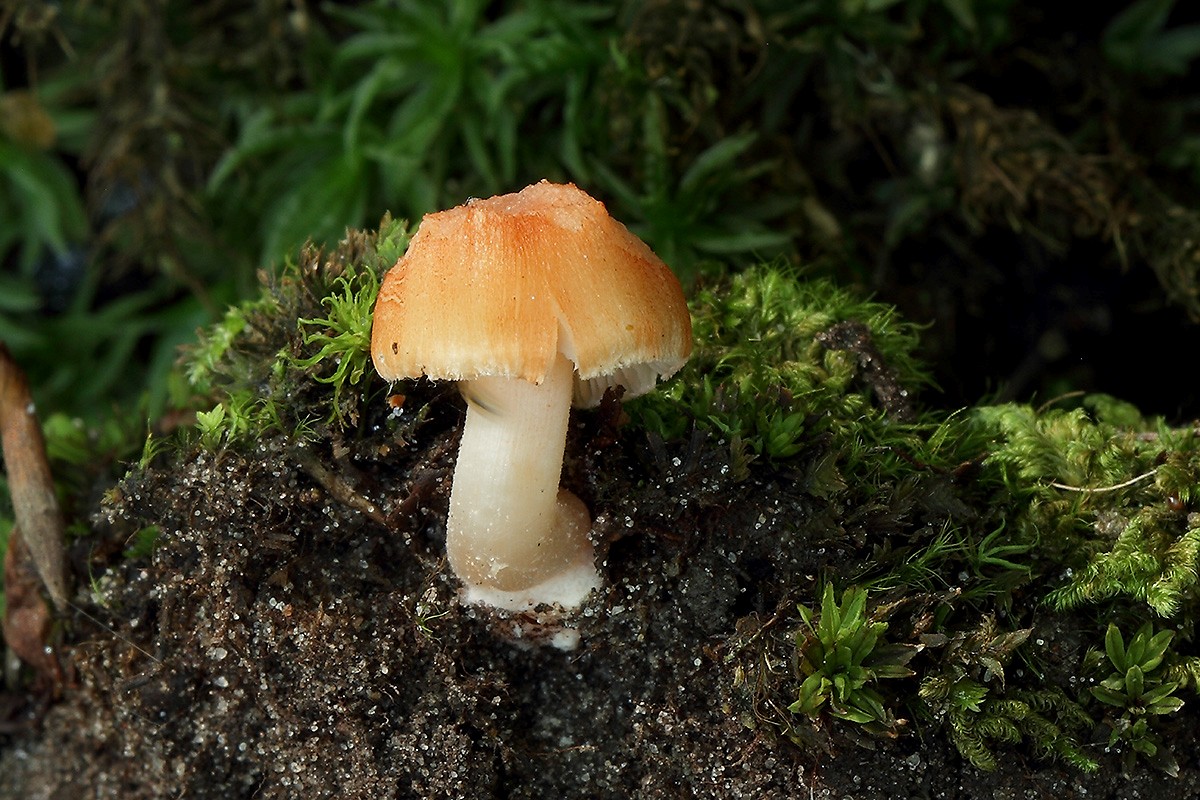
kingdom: Fungi
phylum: Basidiomycota
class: Agaricomycetes
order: Agaricales
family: Inocybaceae
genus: Inocybe
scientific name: Inocybe godeyi
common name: orangerødmende trævlhat
